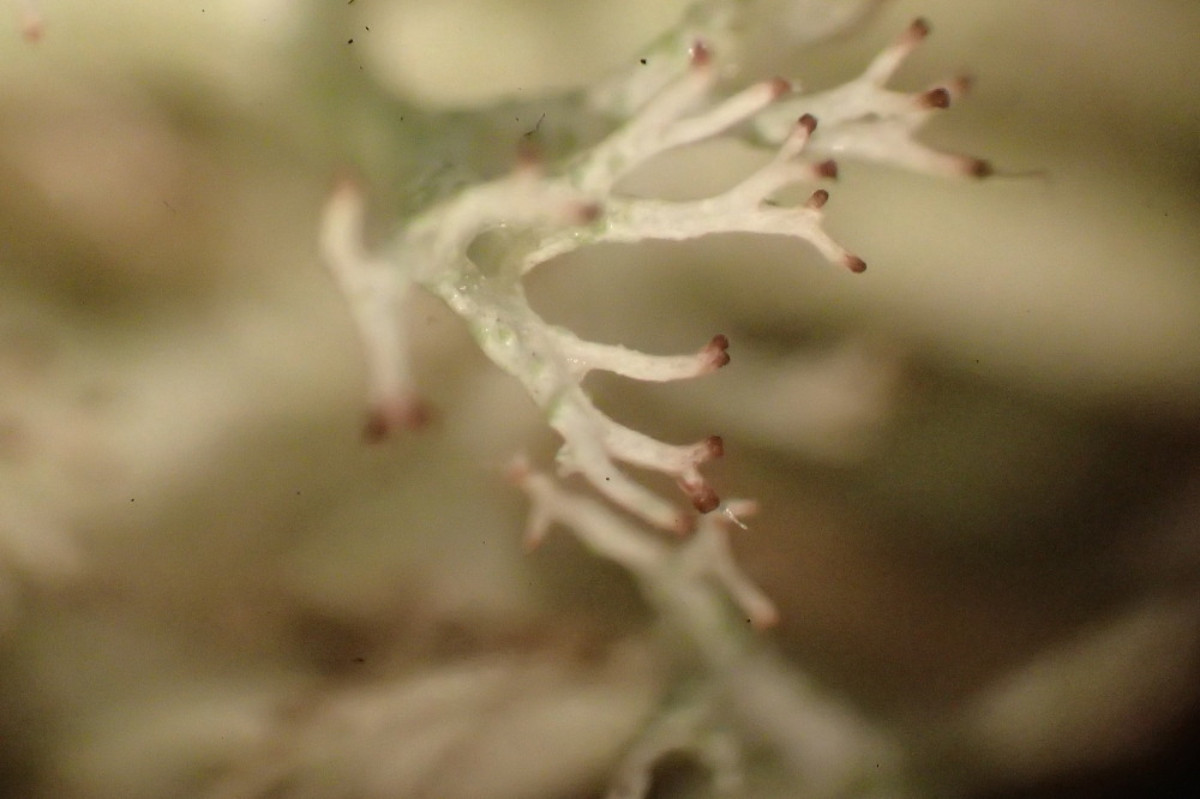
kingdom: Fungi
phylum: Ascomycota
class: Lecanoromycetes
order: Lecanorales
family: Cladoniaceae
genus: Cladonia
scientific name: Cladonia mitis
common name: mild rensdyrlav
